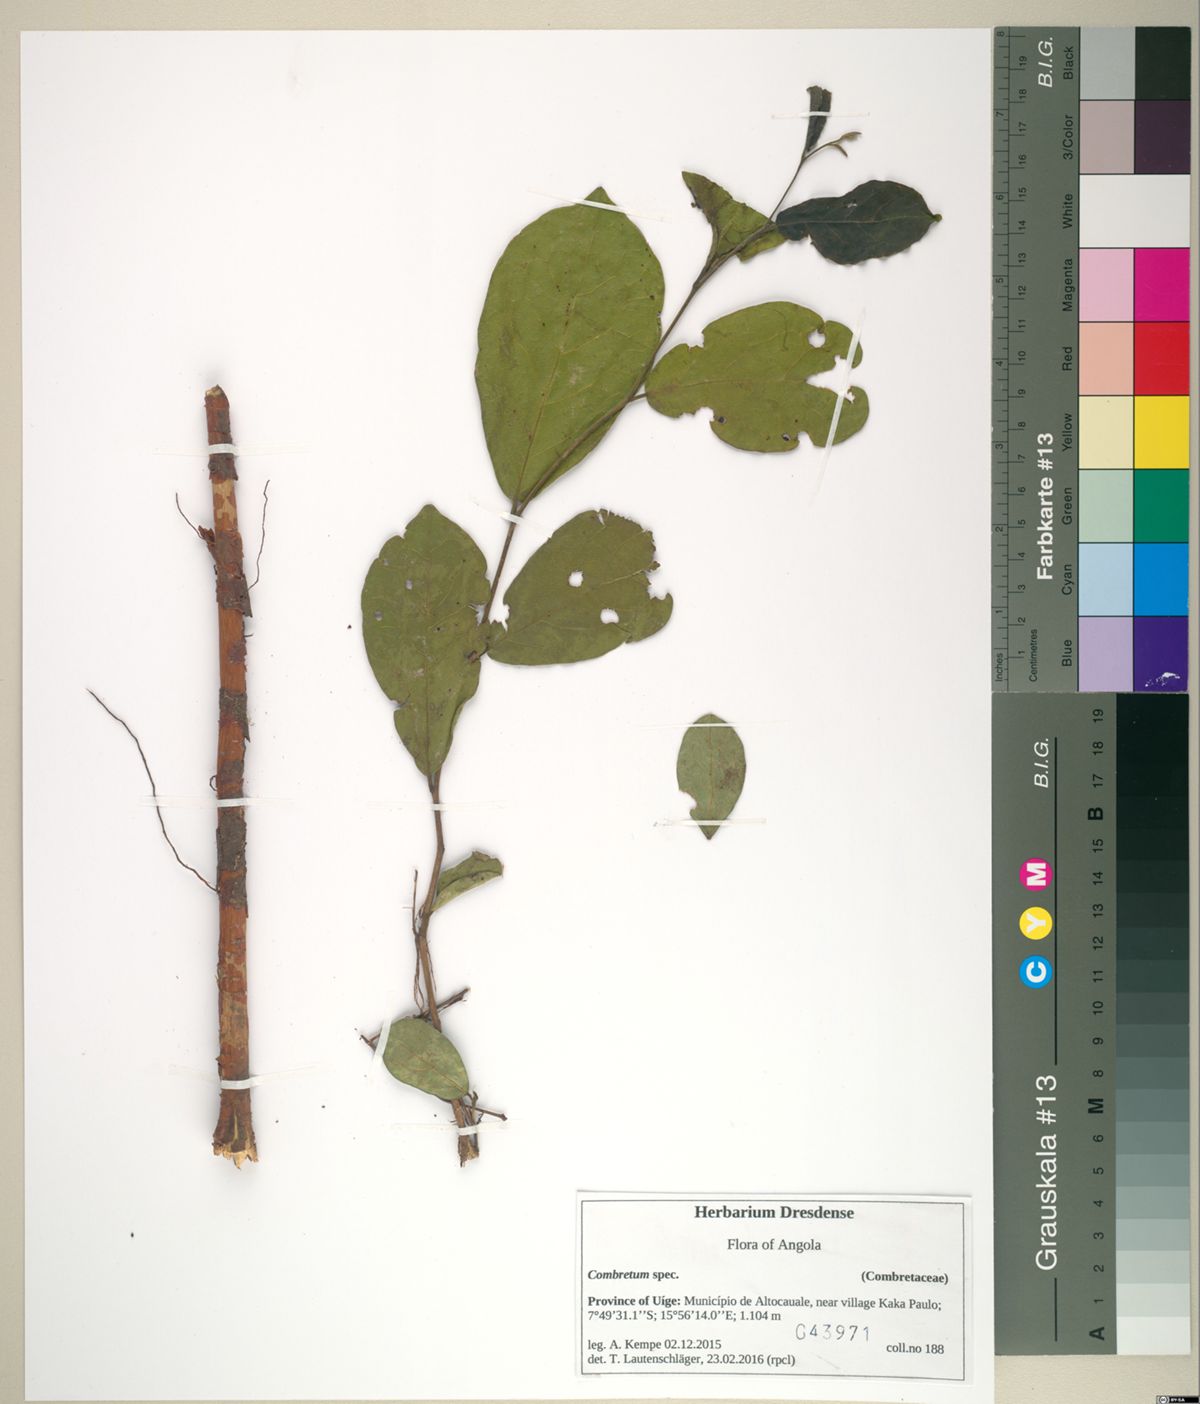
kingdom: Plantae
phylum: Tracheophyta
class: Magnoliopsida
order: Myrtales
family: Combretaceae
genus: Combretum
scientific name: Combretum
